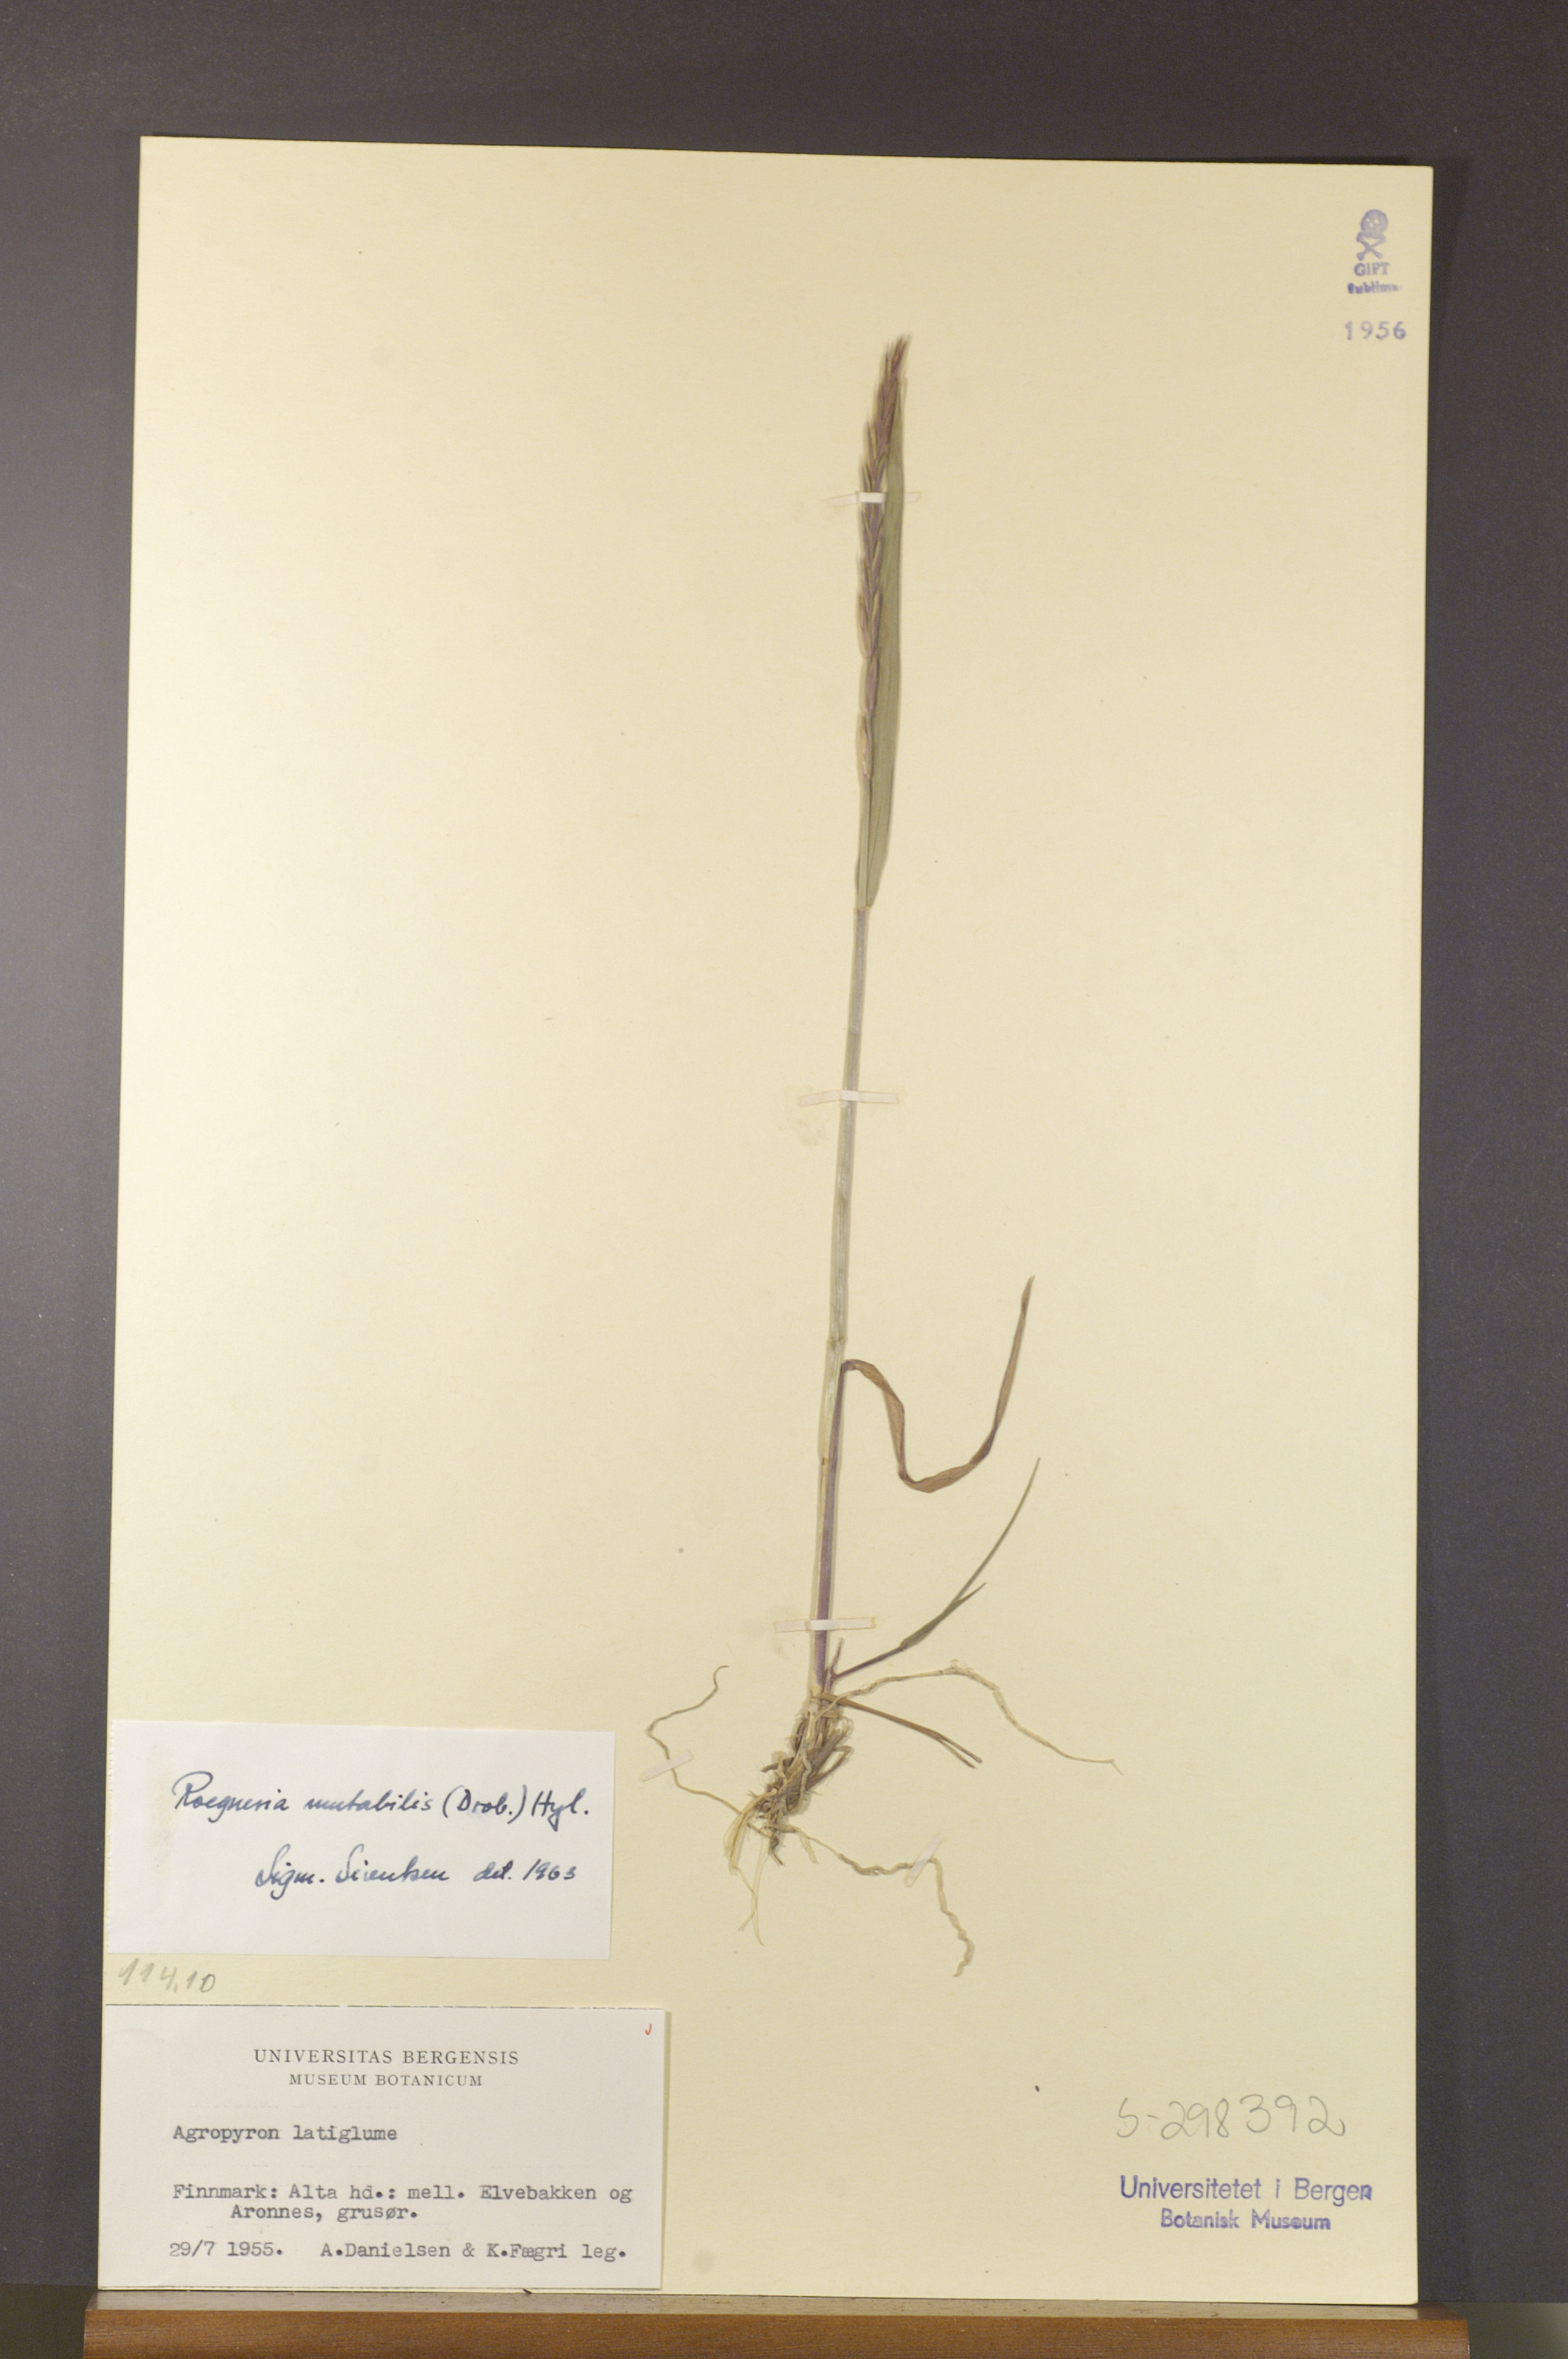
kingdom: Plantae
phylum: Tracheophyta
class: Liliopsida
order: Poales
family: Poaceae
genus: Elymus
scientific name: Elymus mutabilis
